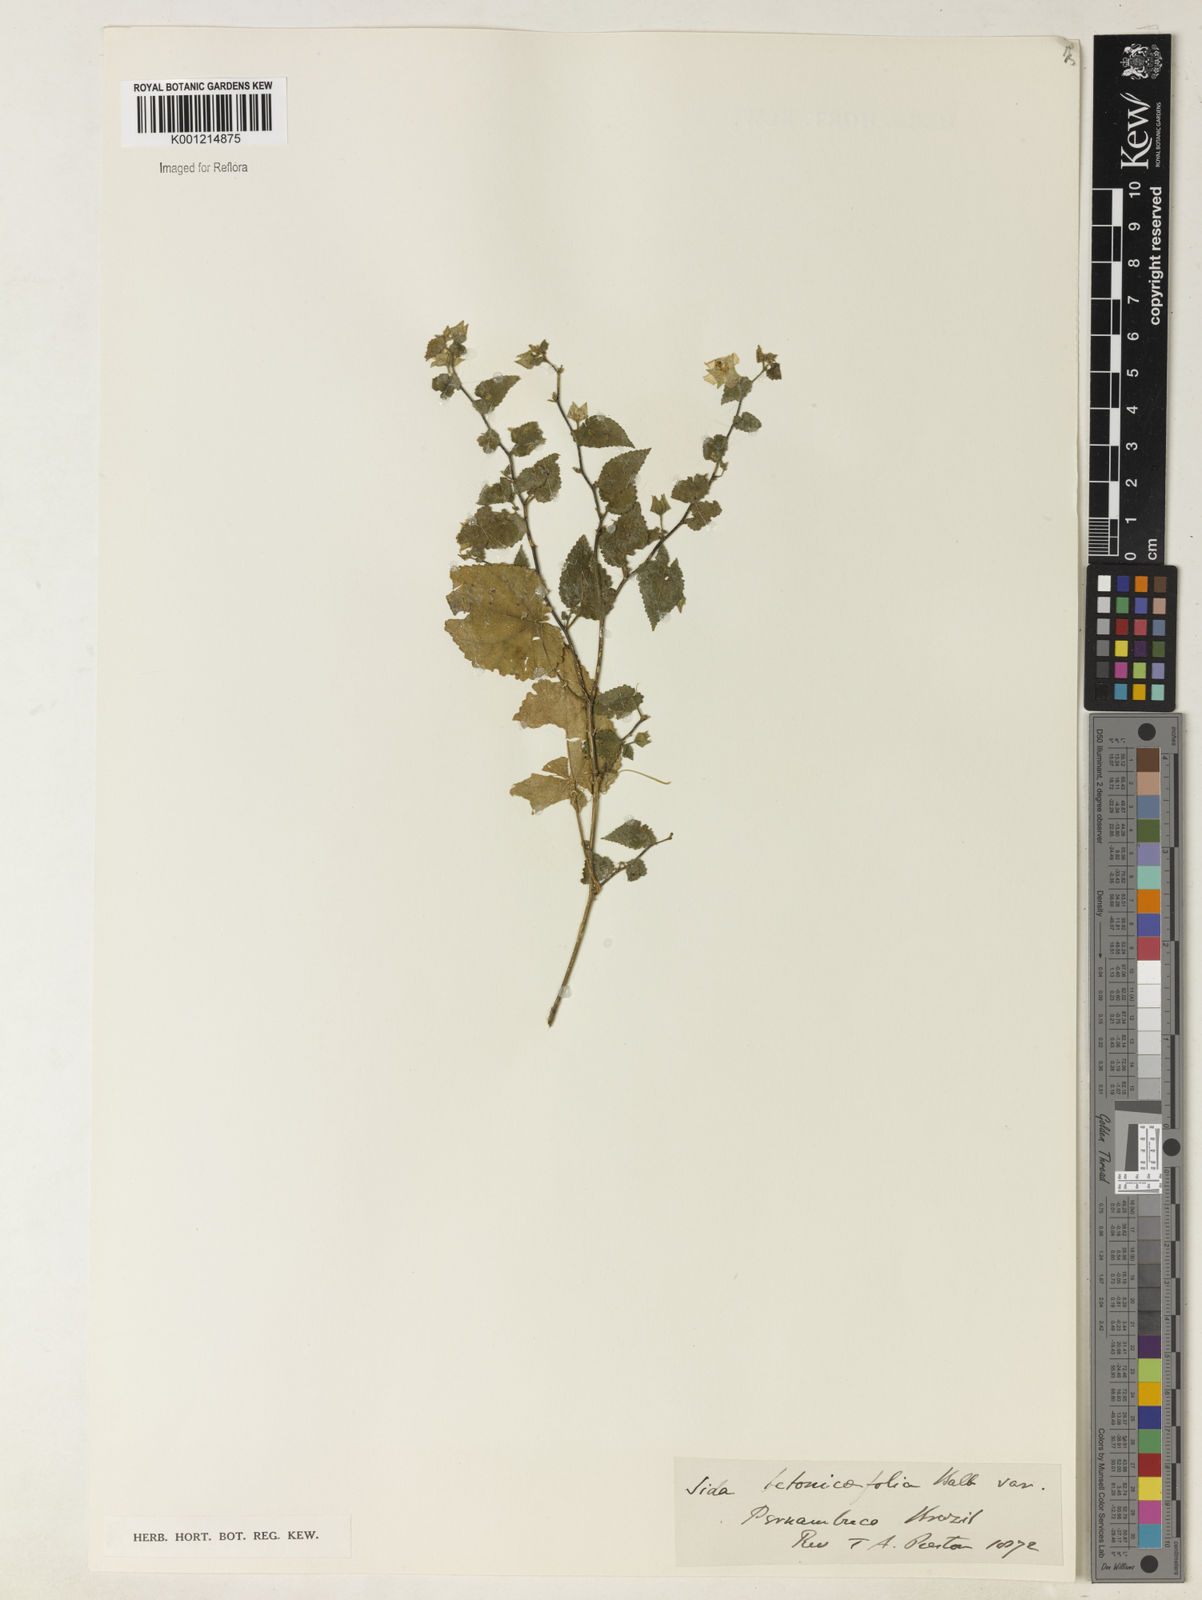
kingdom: Plantae
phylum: Tracheophyta
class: Magnoliopsida
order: Malvales
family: Malvaceae
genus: Sida
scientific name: Sida
